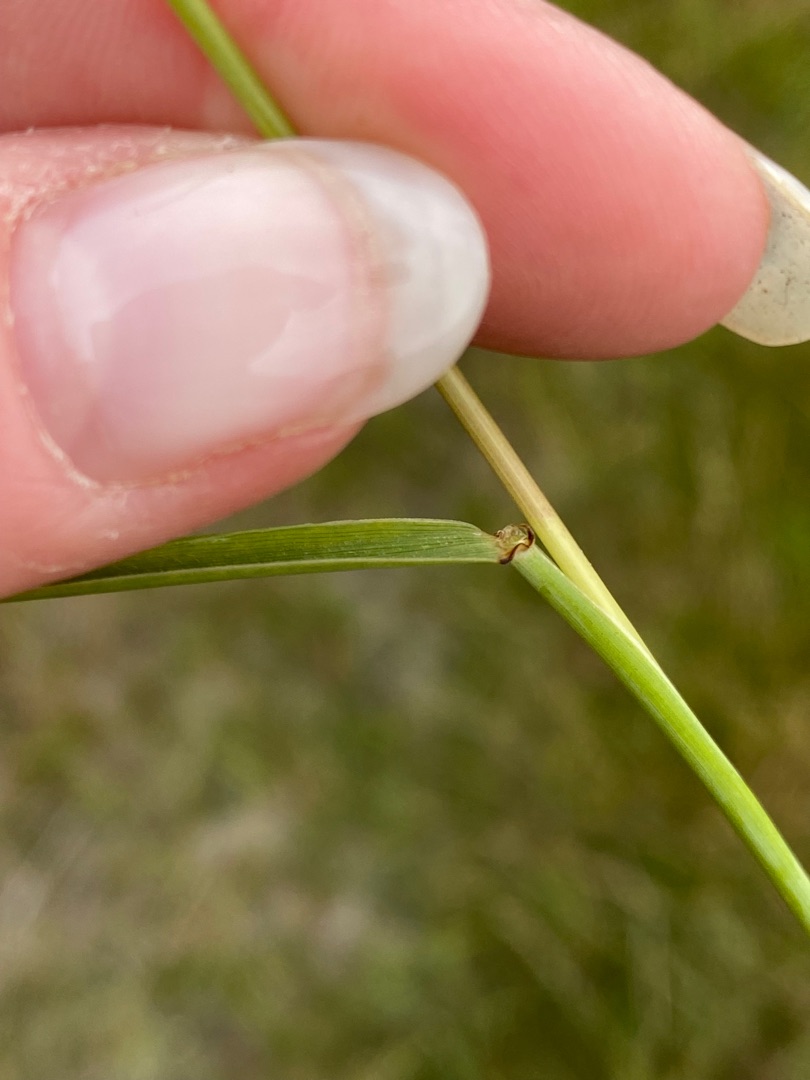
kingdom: Plantae
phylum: Tracheophyta
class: Liliopsida
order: Poales
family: Poaceae
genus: Elymus
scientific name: Elymus repens
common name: Almindelig kvik
